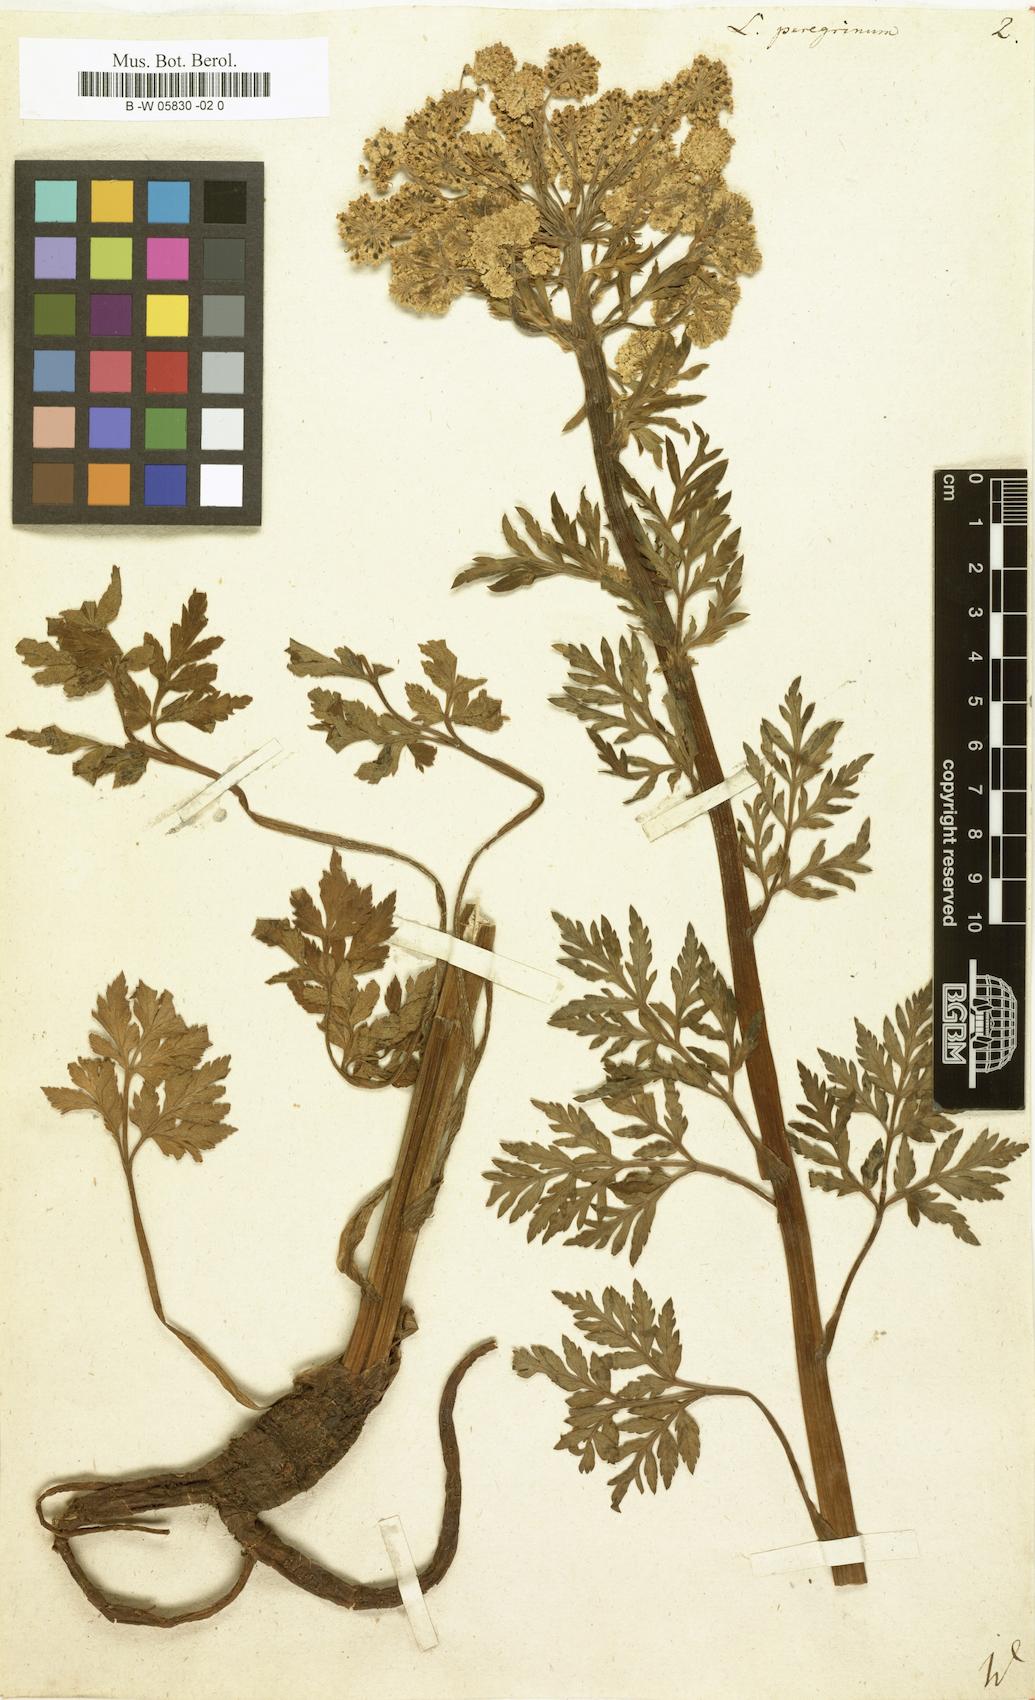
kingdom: Plantae
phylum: Tracheophyta
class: Magnoliopsida
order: Apiales
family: Apiaceae
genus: Petroselinum
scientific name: Petroselinum crispum
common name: Parsley
